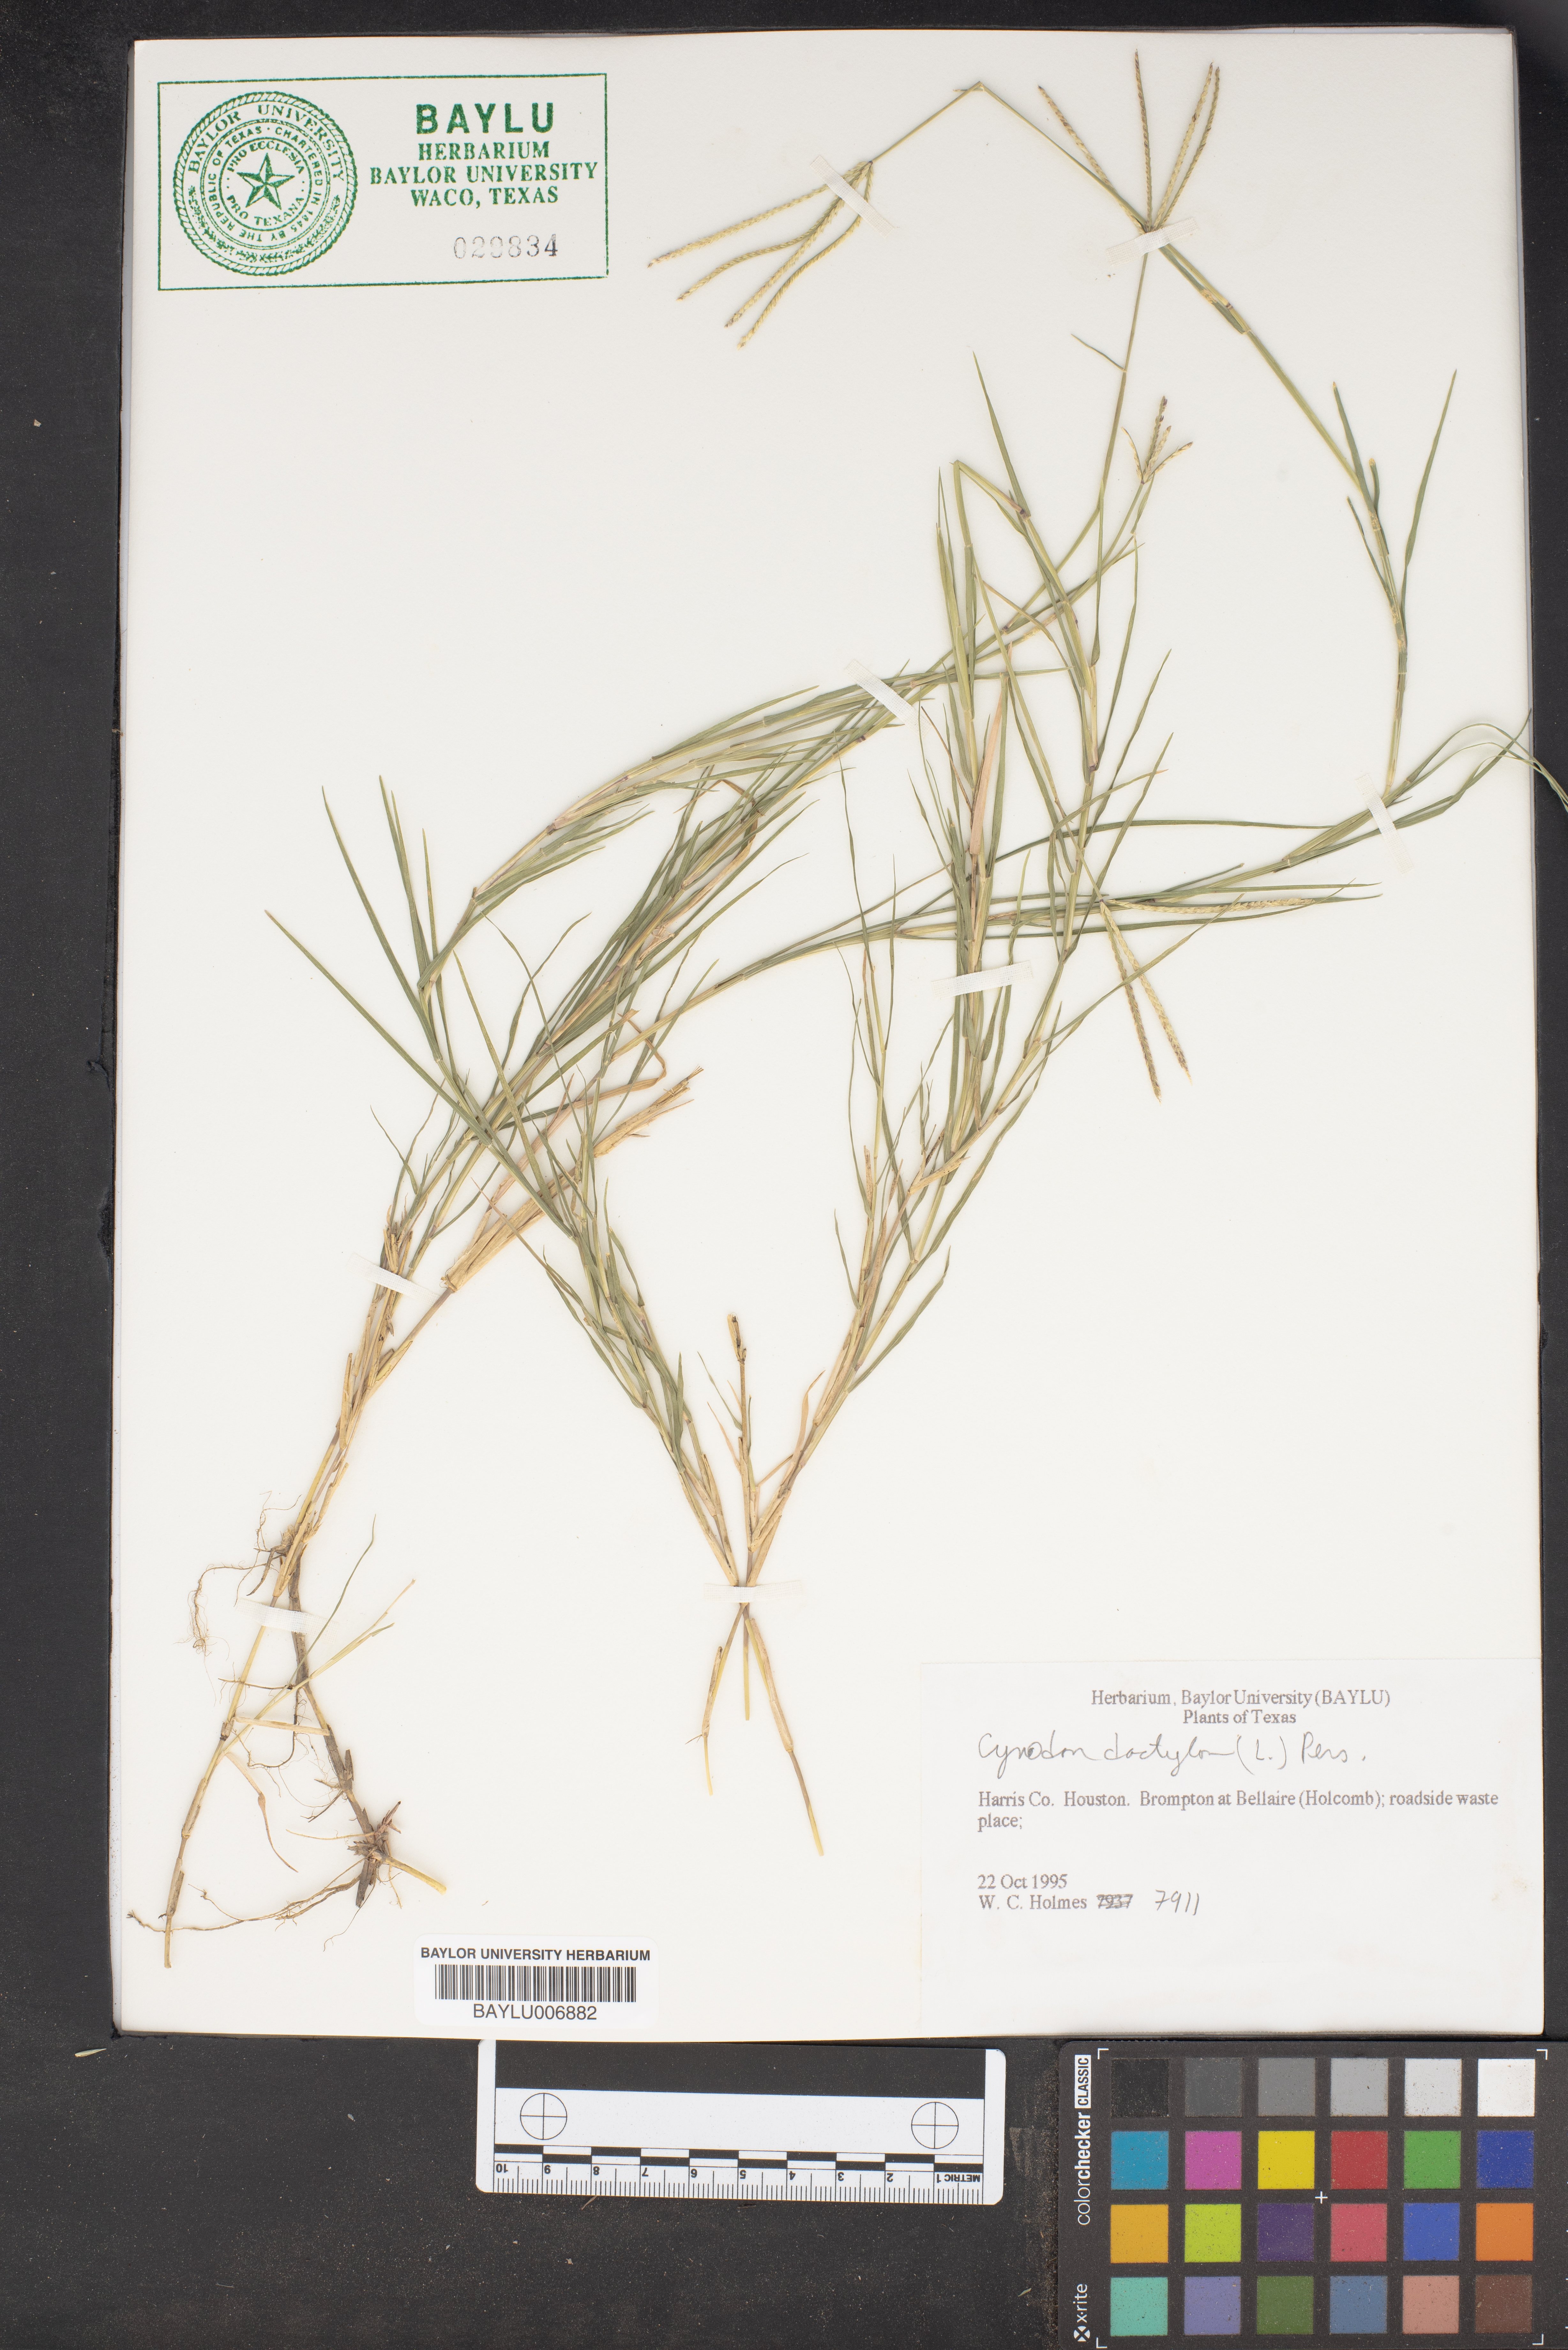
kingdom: Plantae
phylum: Tracheophyta
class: Liliopsida
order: Poales
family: Poaceae
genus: Cynodon
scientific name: Cynodon dactylon
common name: Bermuda grass
